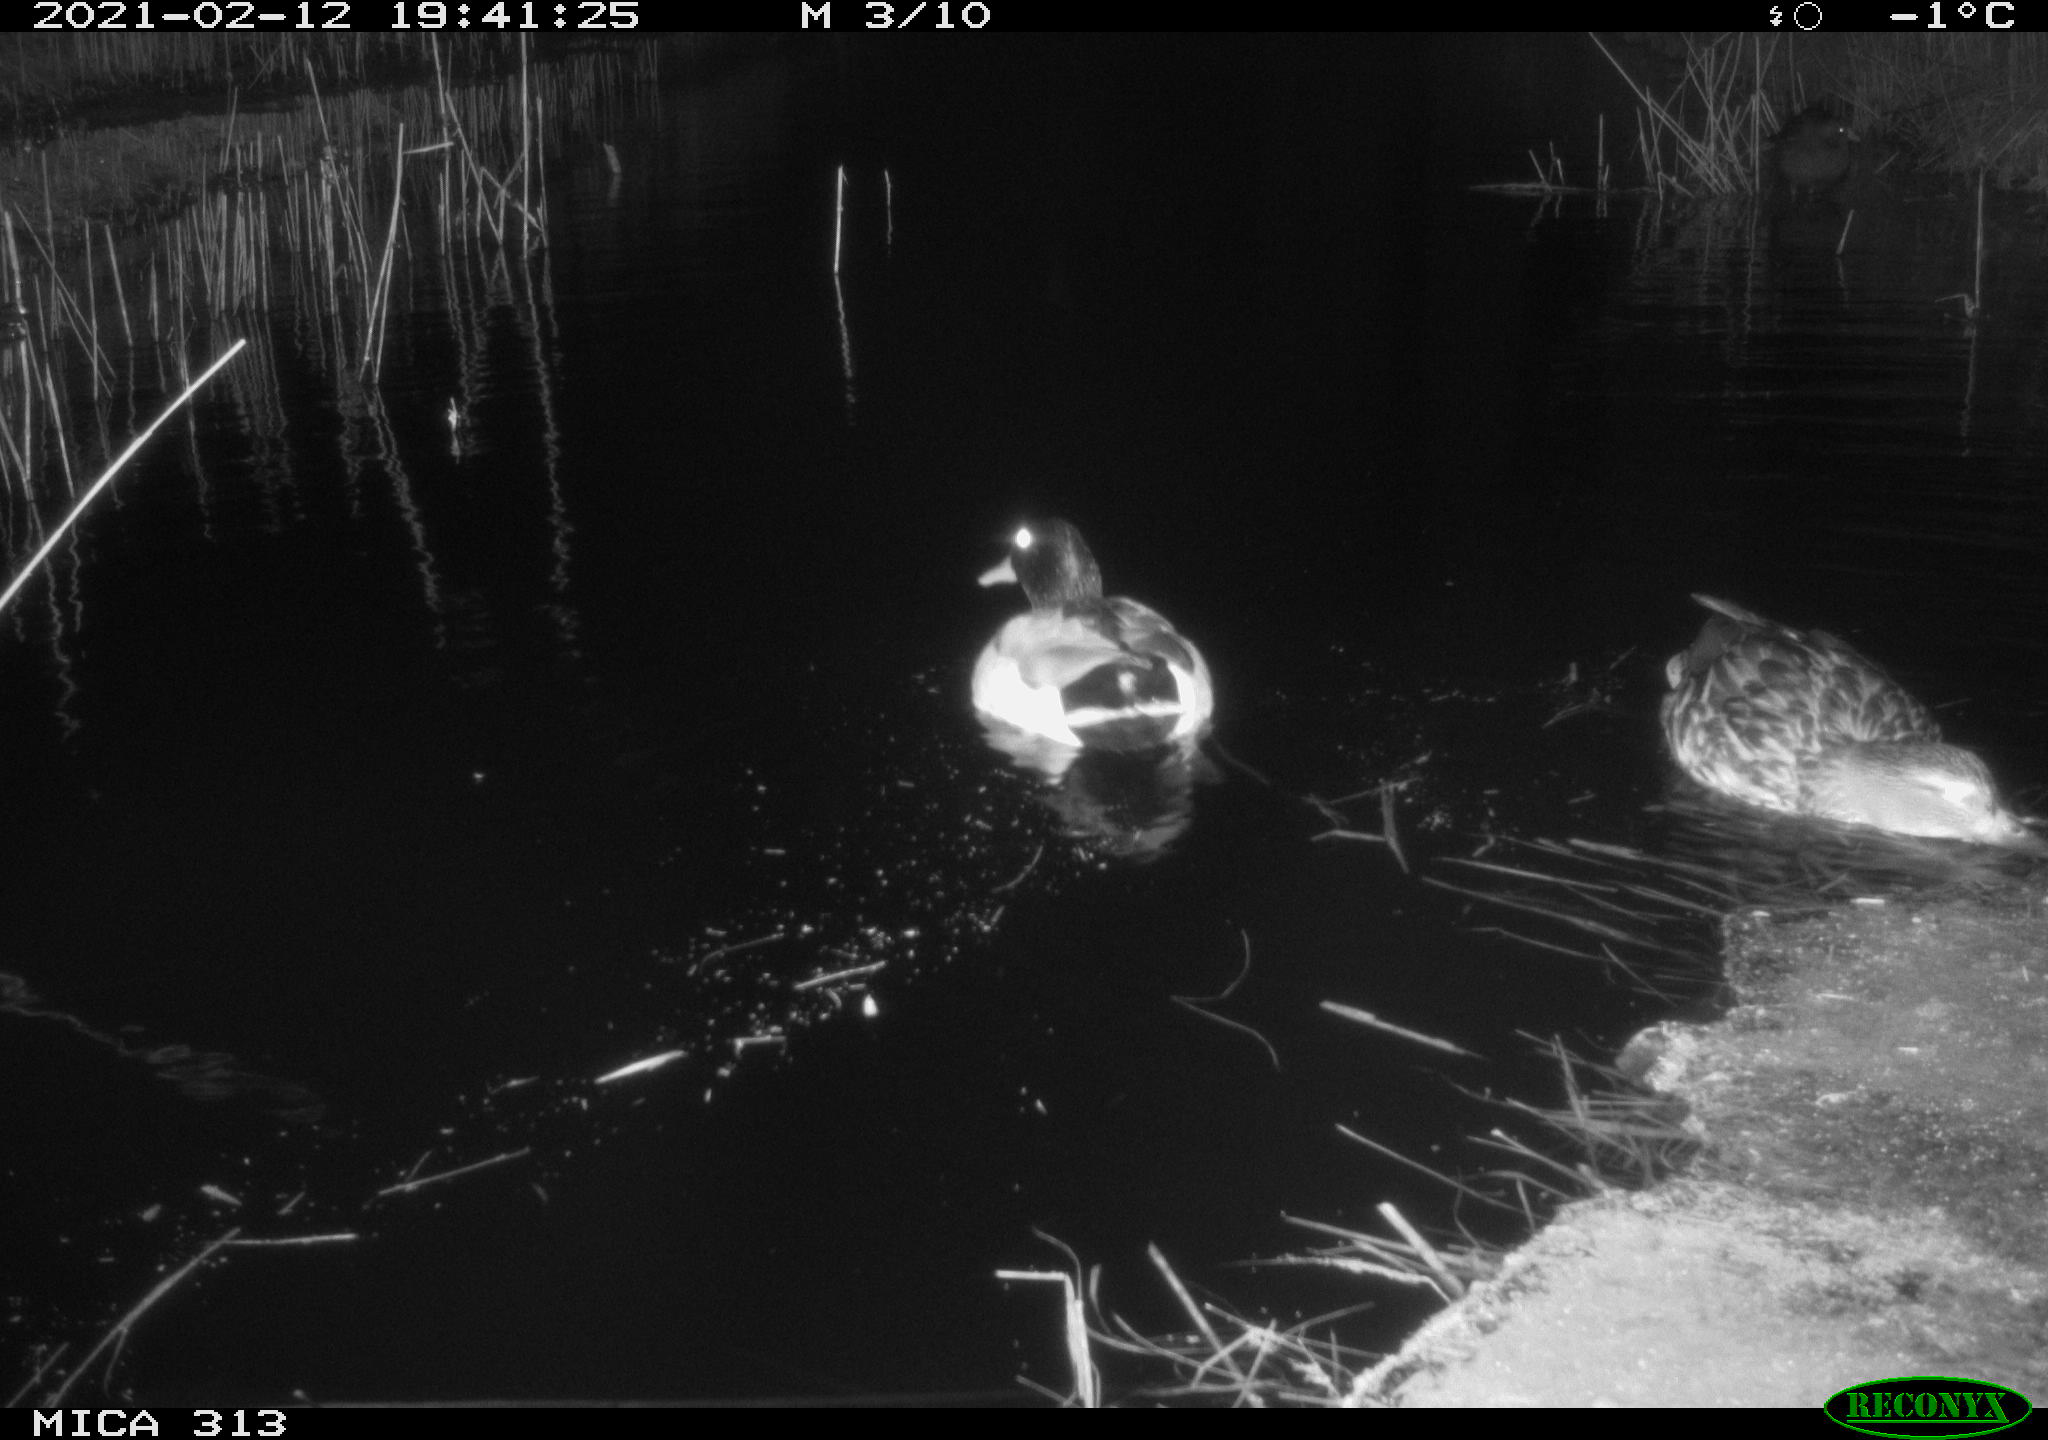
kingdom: Animalia
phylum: Chordata
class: Aves
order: Anseriformes
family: Anatidae
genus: Anas
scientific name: Anas
